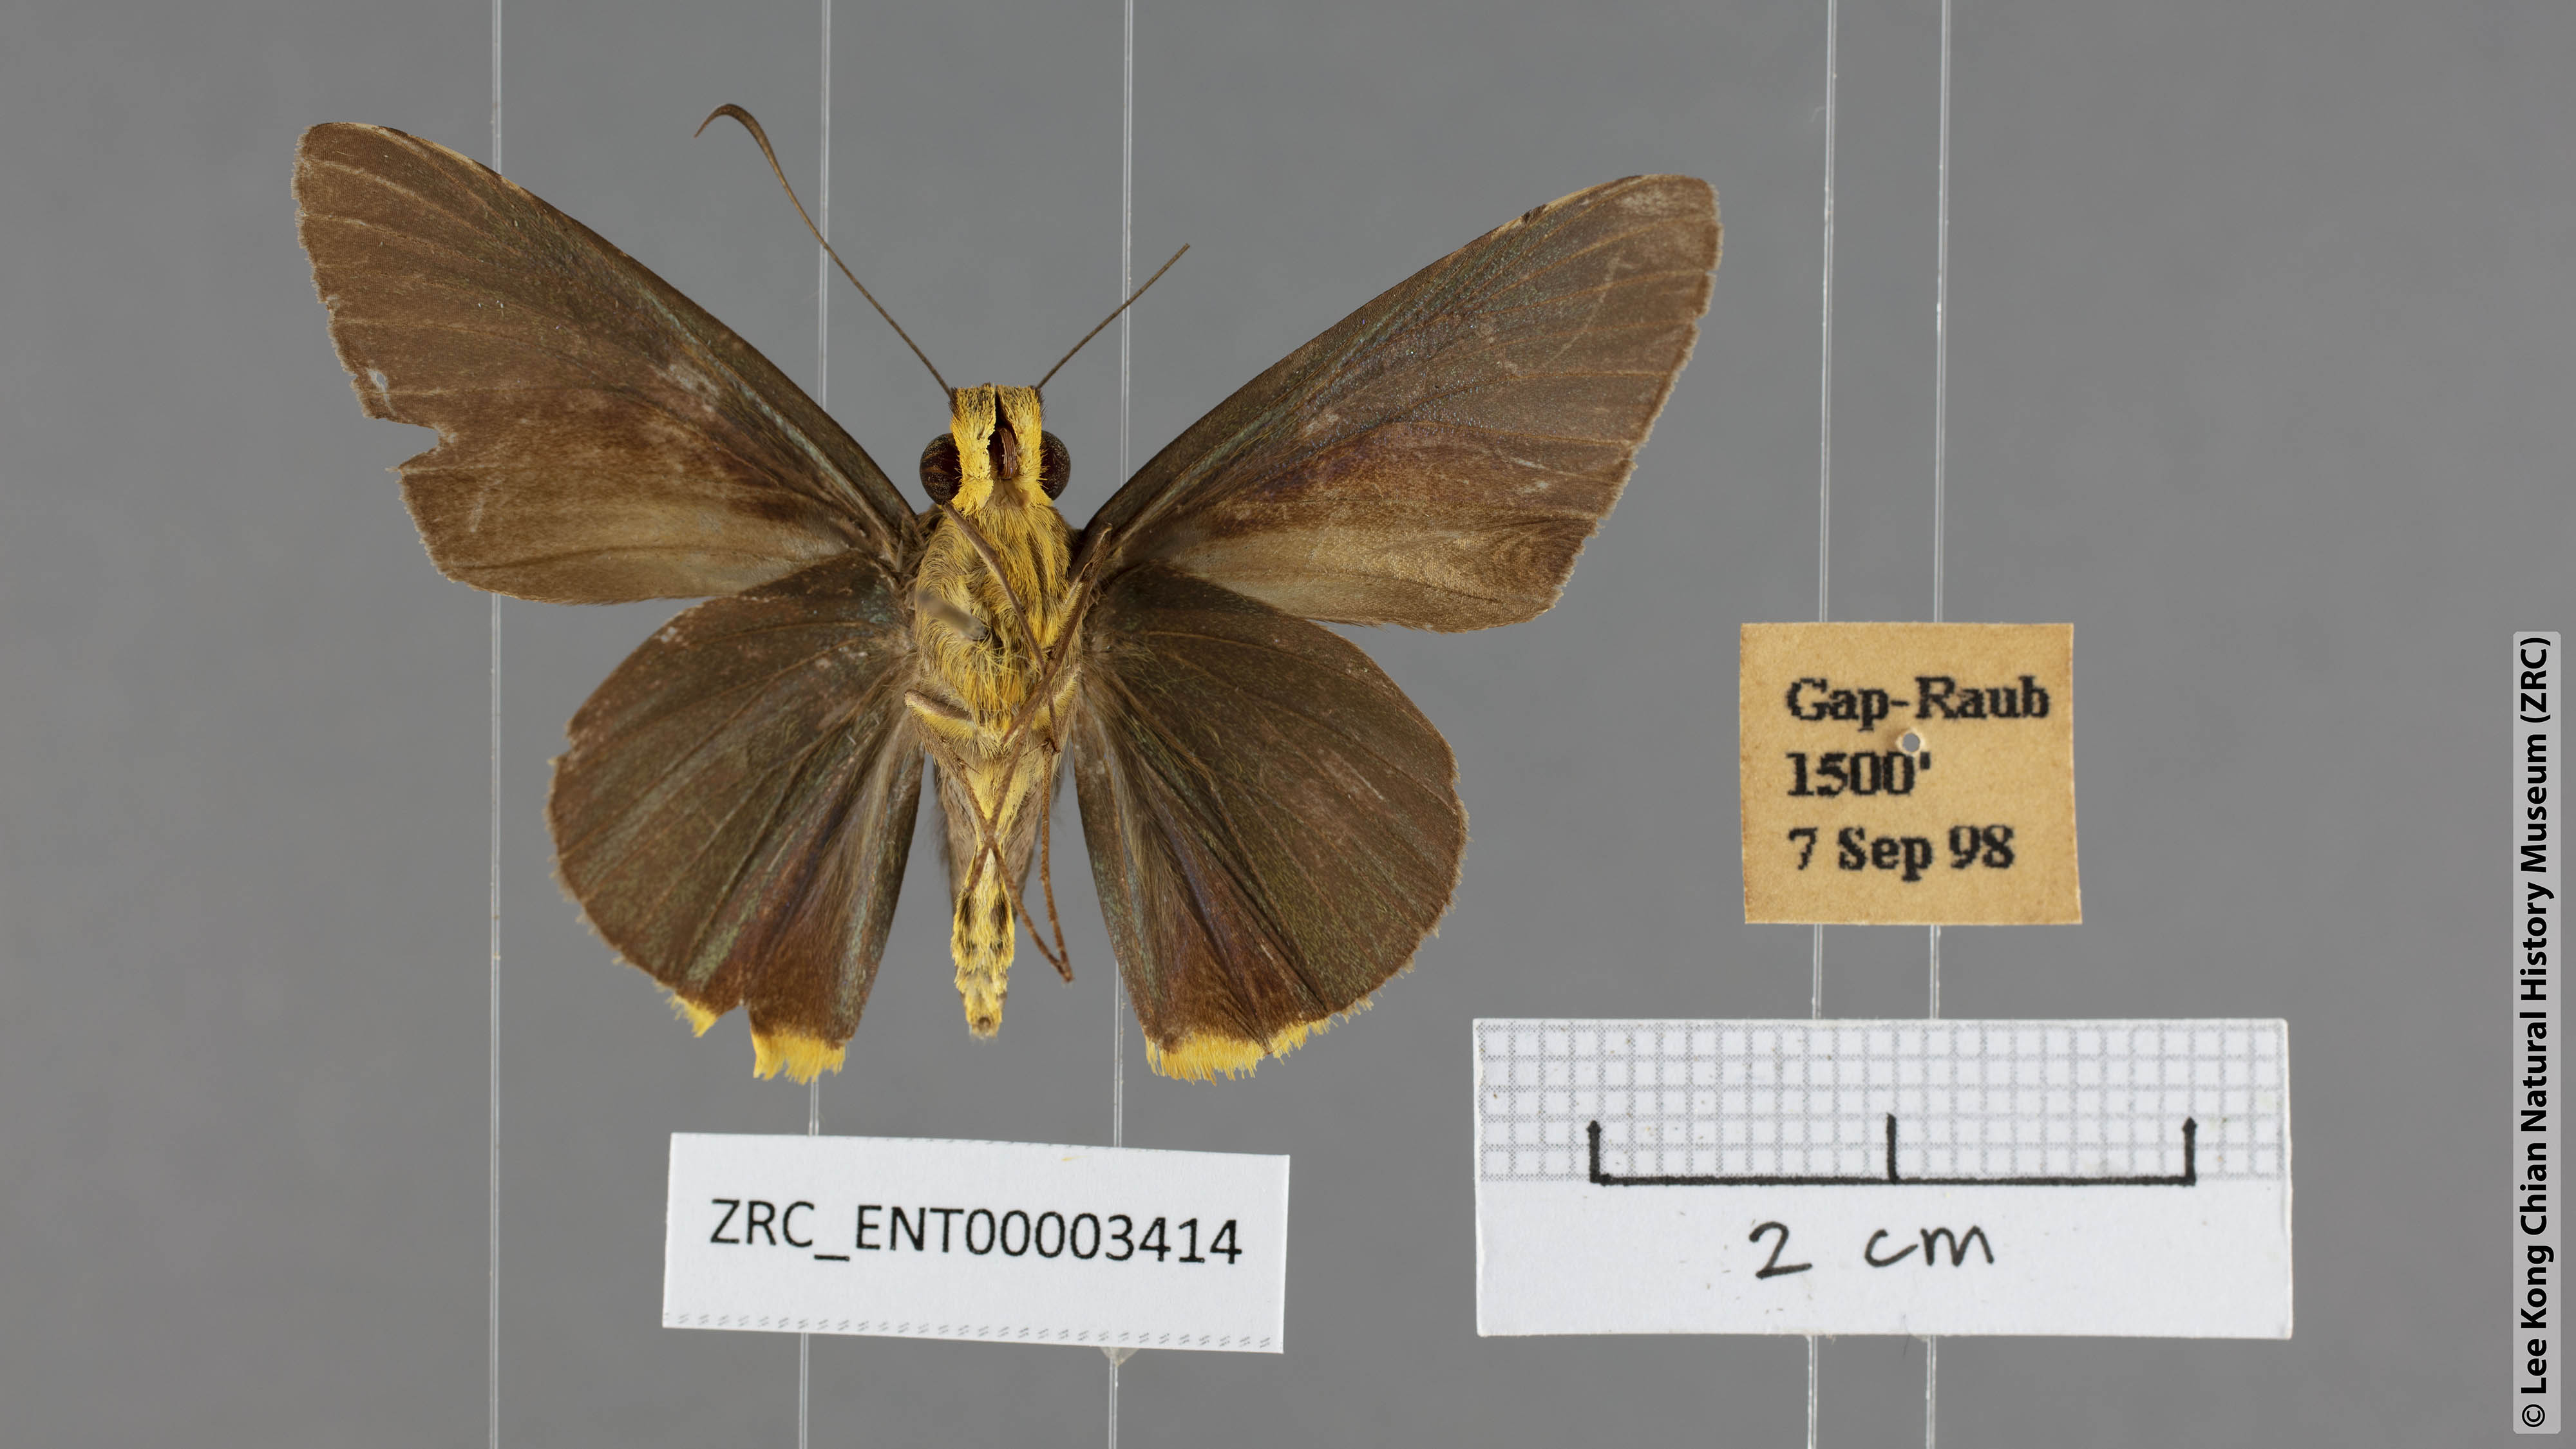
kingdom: Animalia
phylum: Arthropoda
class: Insecta
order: Lepidoptera
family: Hesperiidae
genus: Pirdana
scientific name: Pirdana distanti
